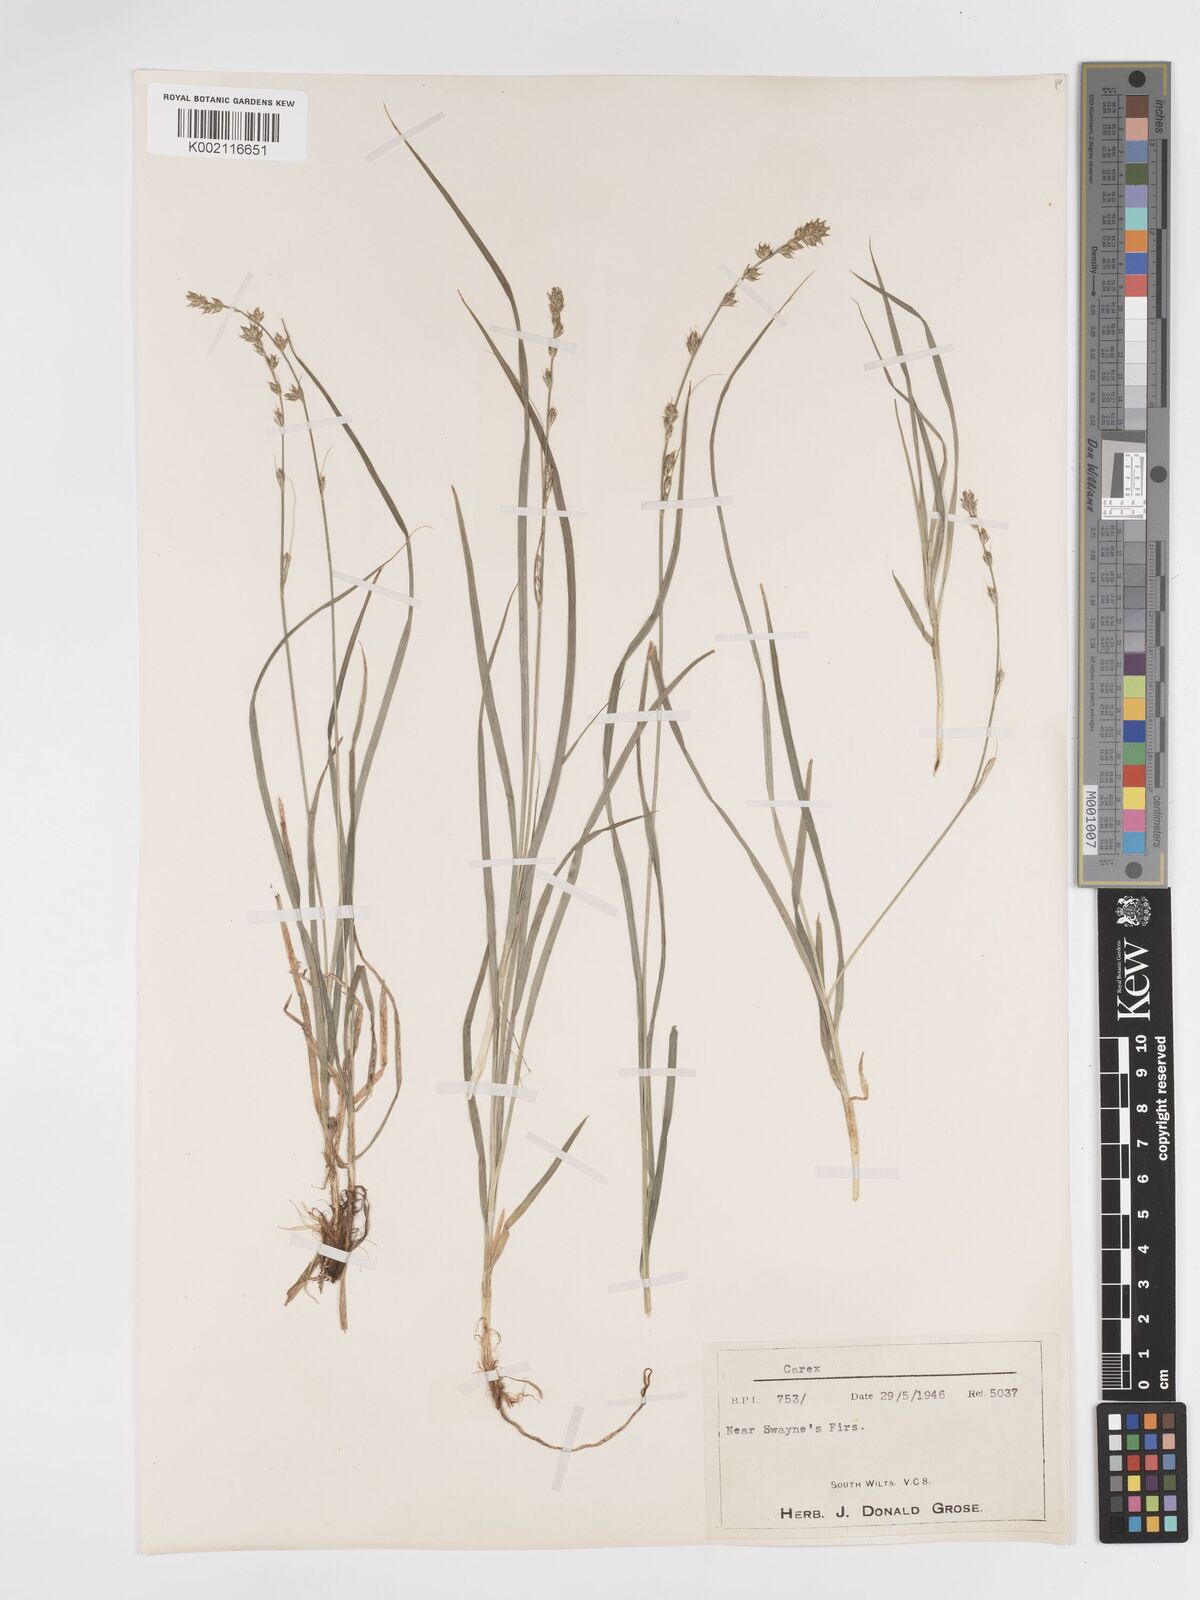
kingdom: Plantae
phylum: Tracheophyta
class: Liliopsida
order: Poales
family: Cyperaceae
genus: Carex
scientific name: Carex divulsa
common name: Grassland sedge
